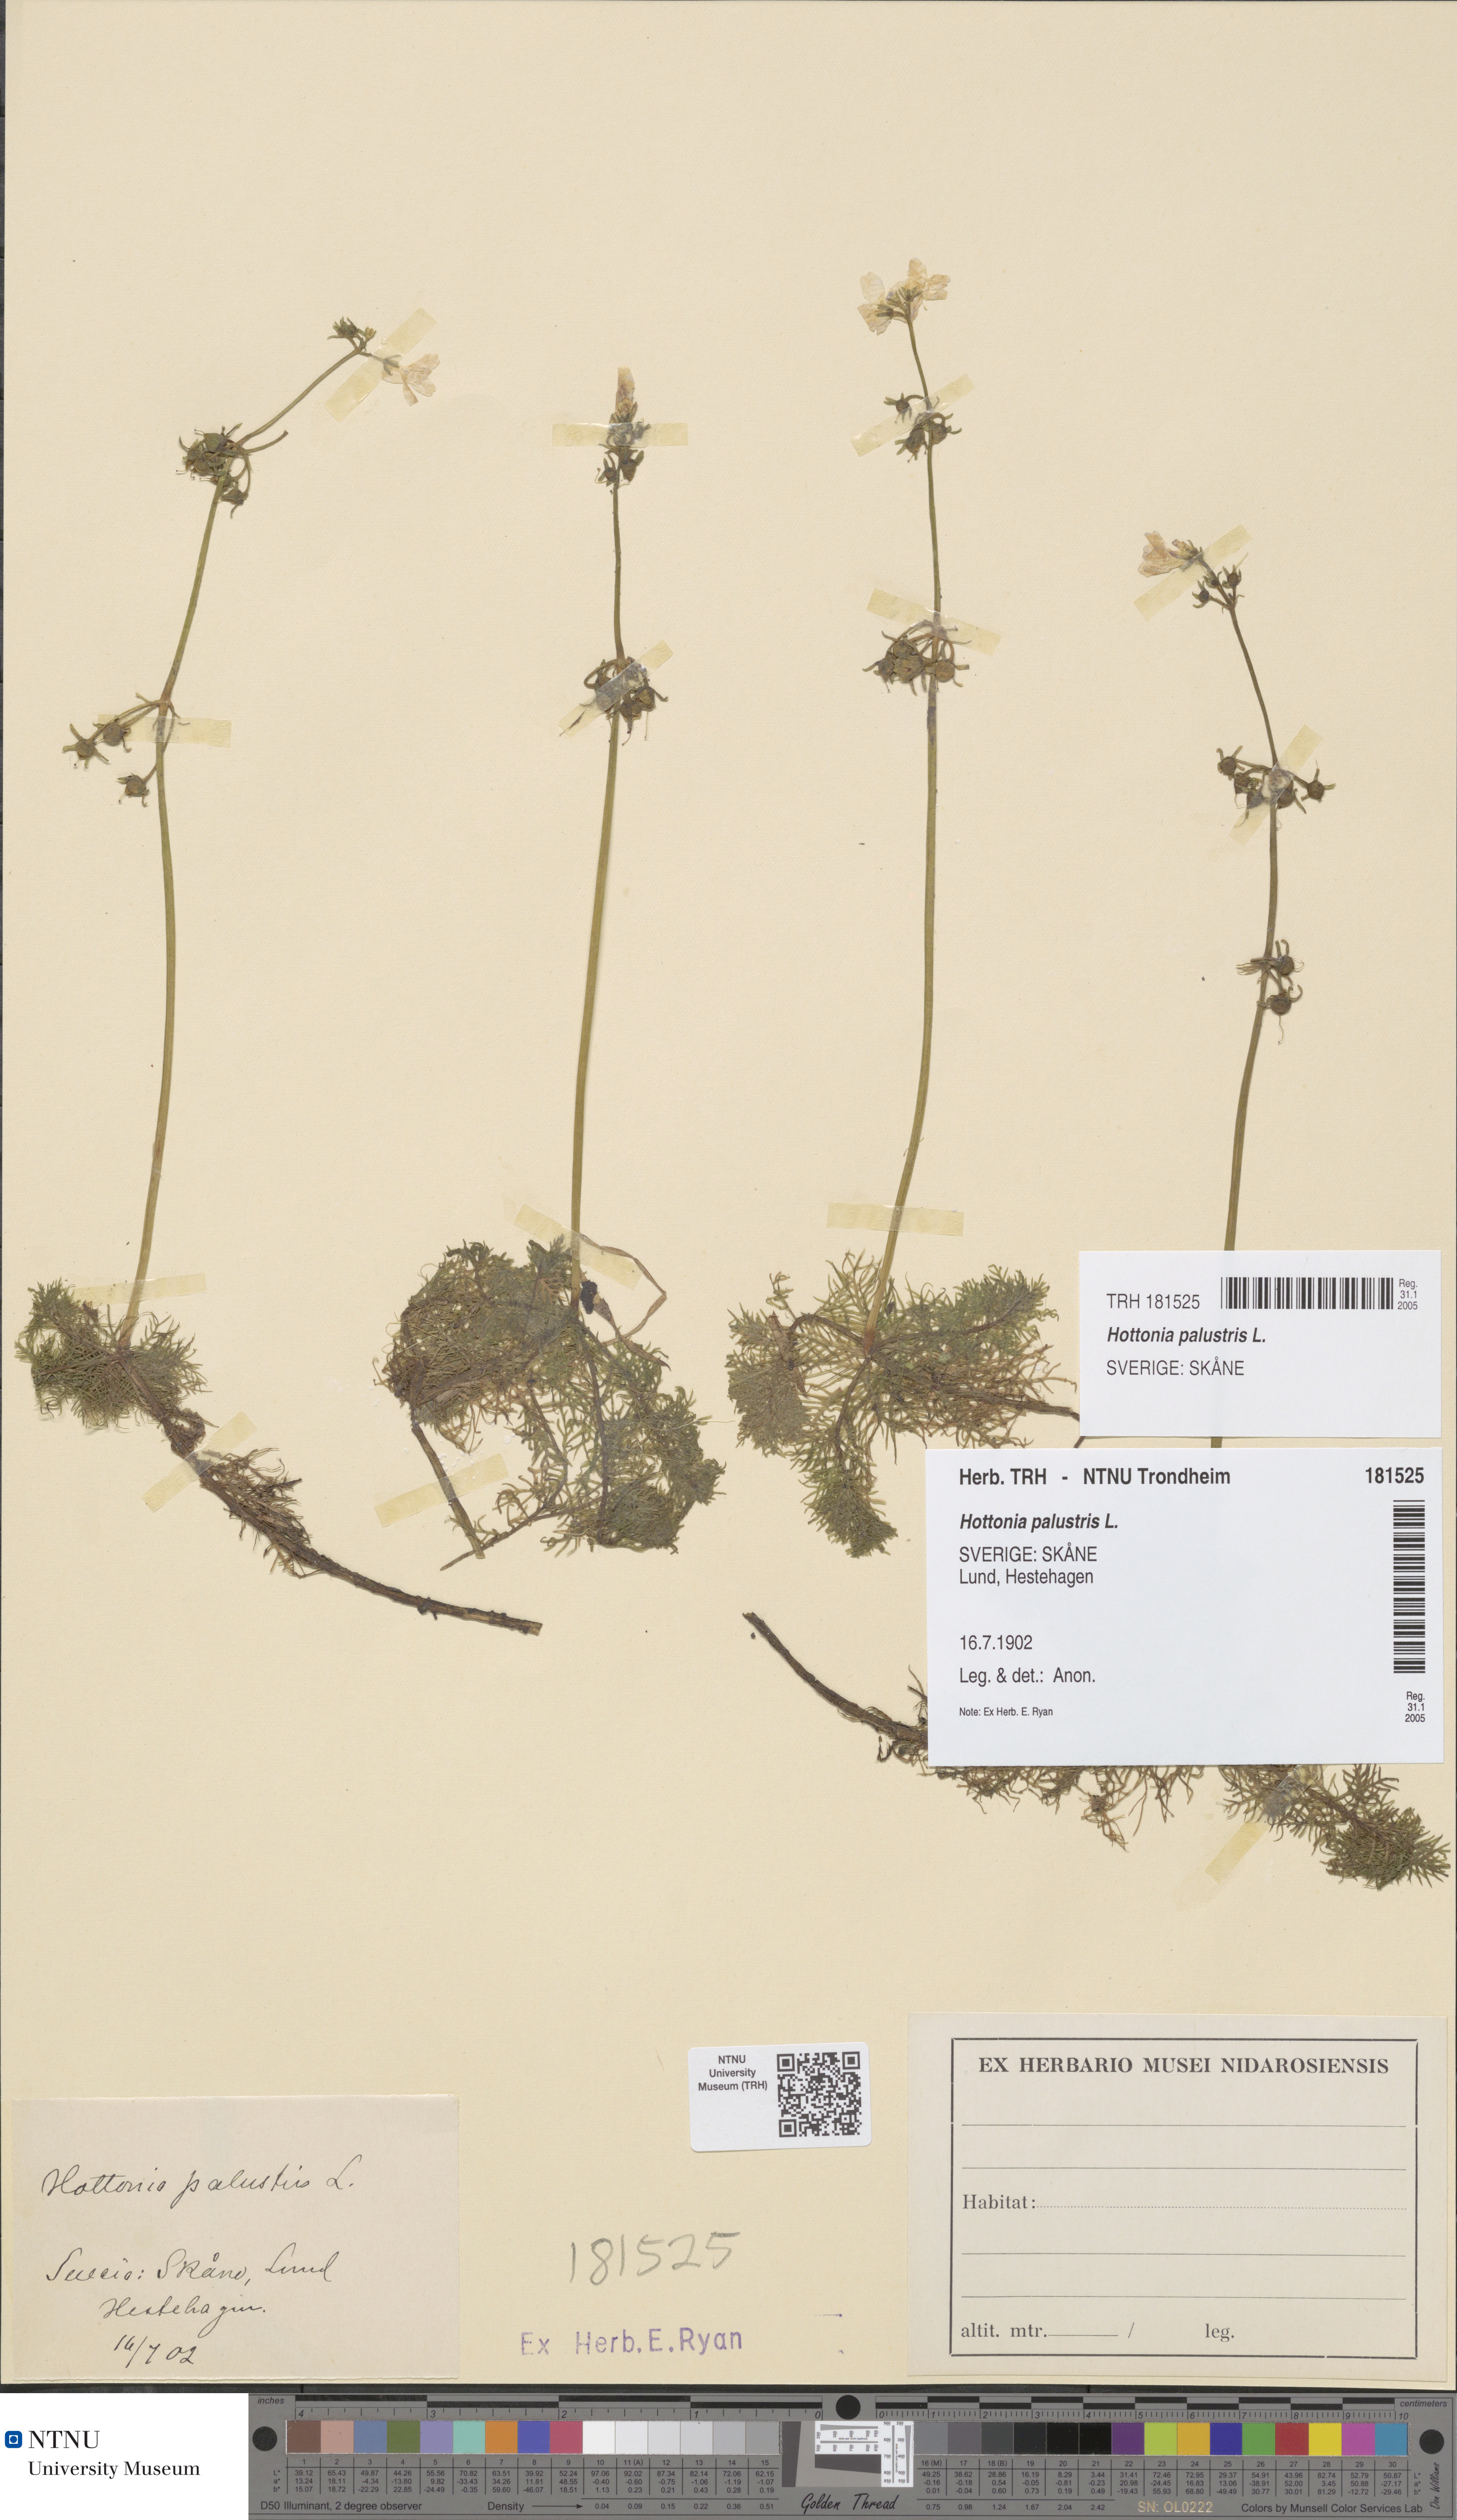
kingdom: Plantae
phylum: Tracheophyta
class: Magnoliopsida
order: Ericales
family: Primulaceae
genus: Hottonia
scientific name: Hottonia palustris
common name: Water-violet
